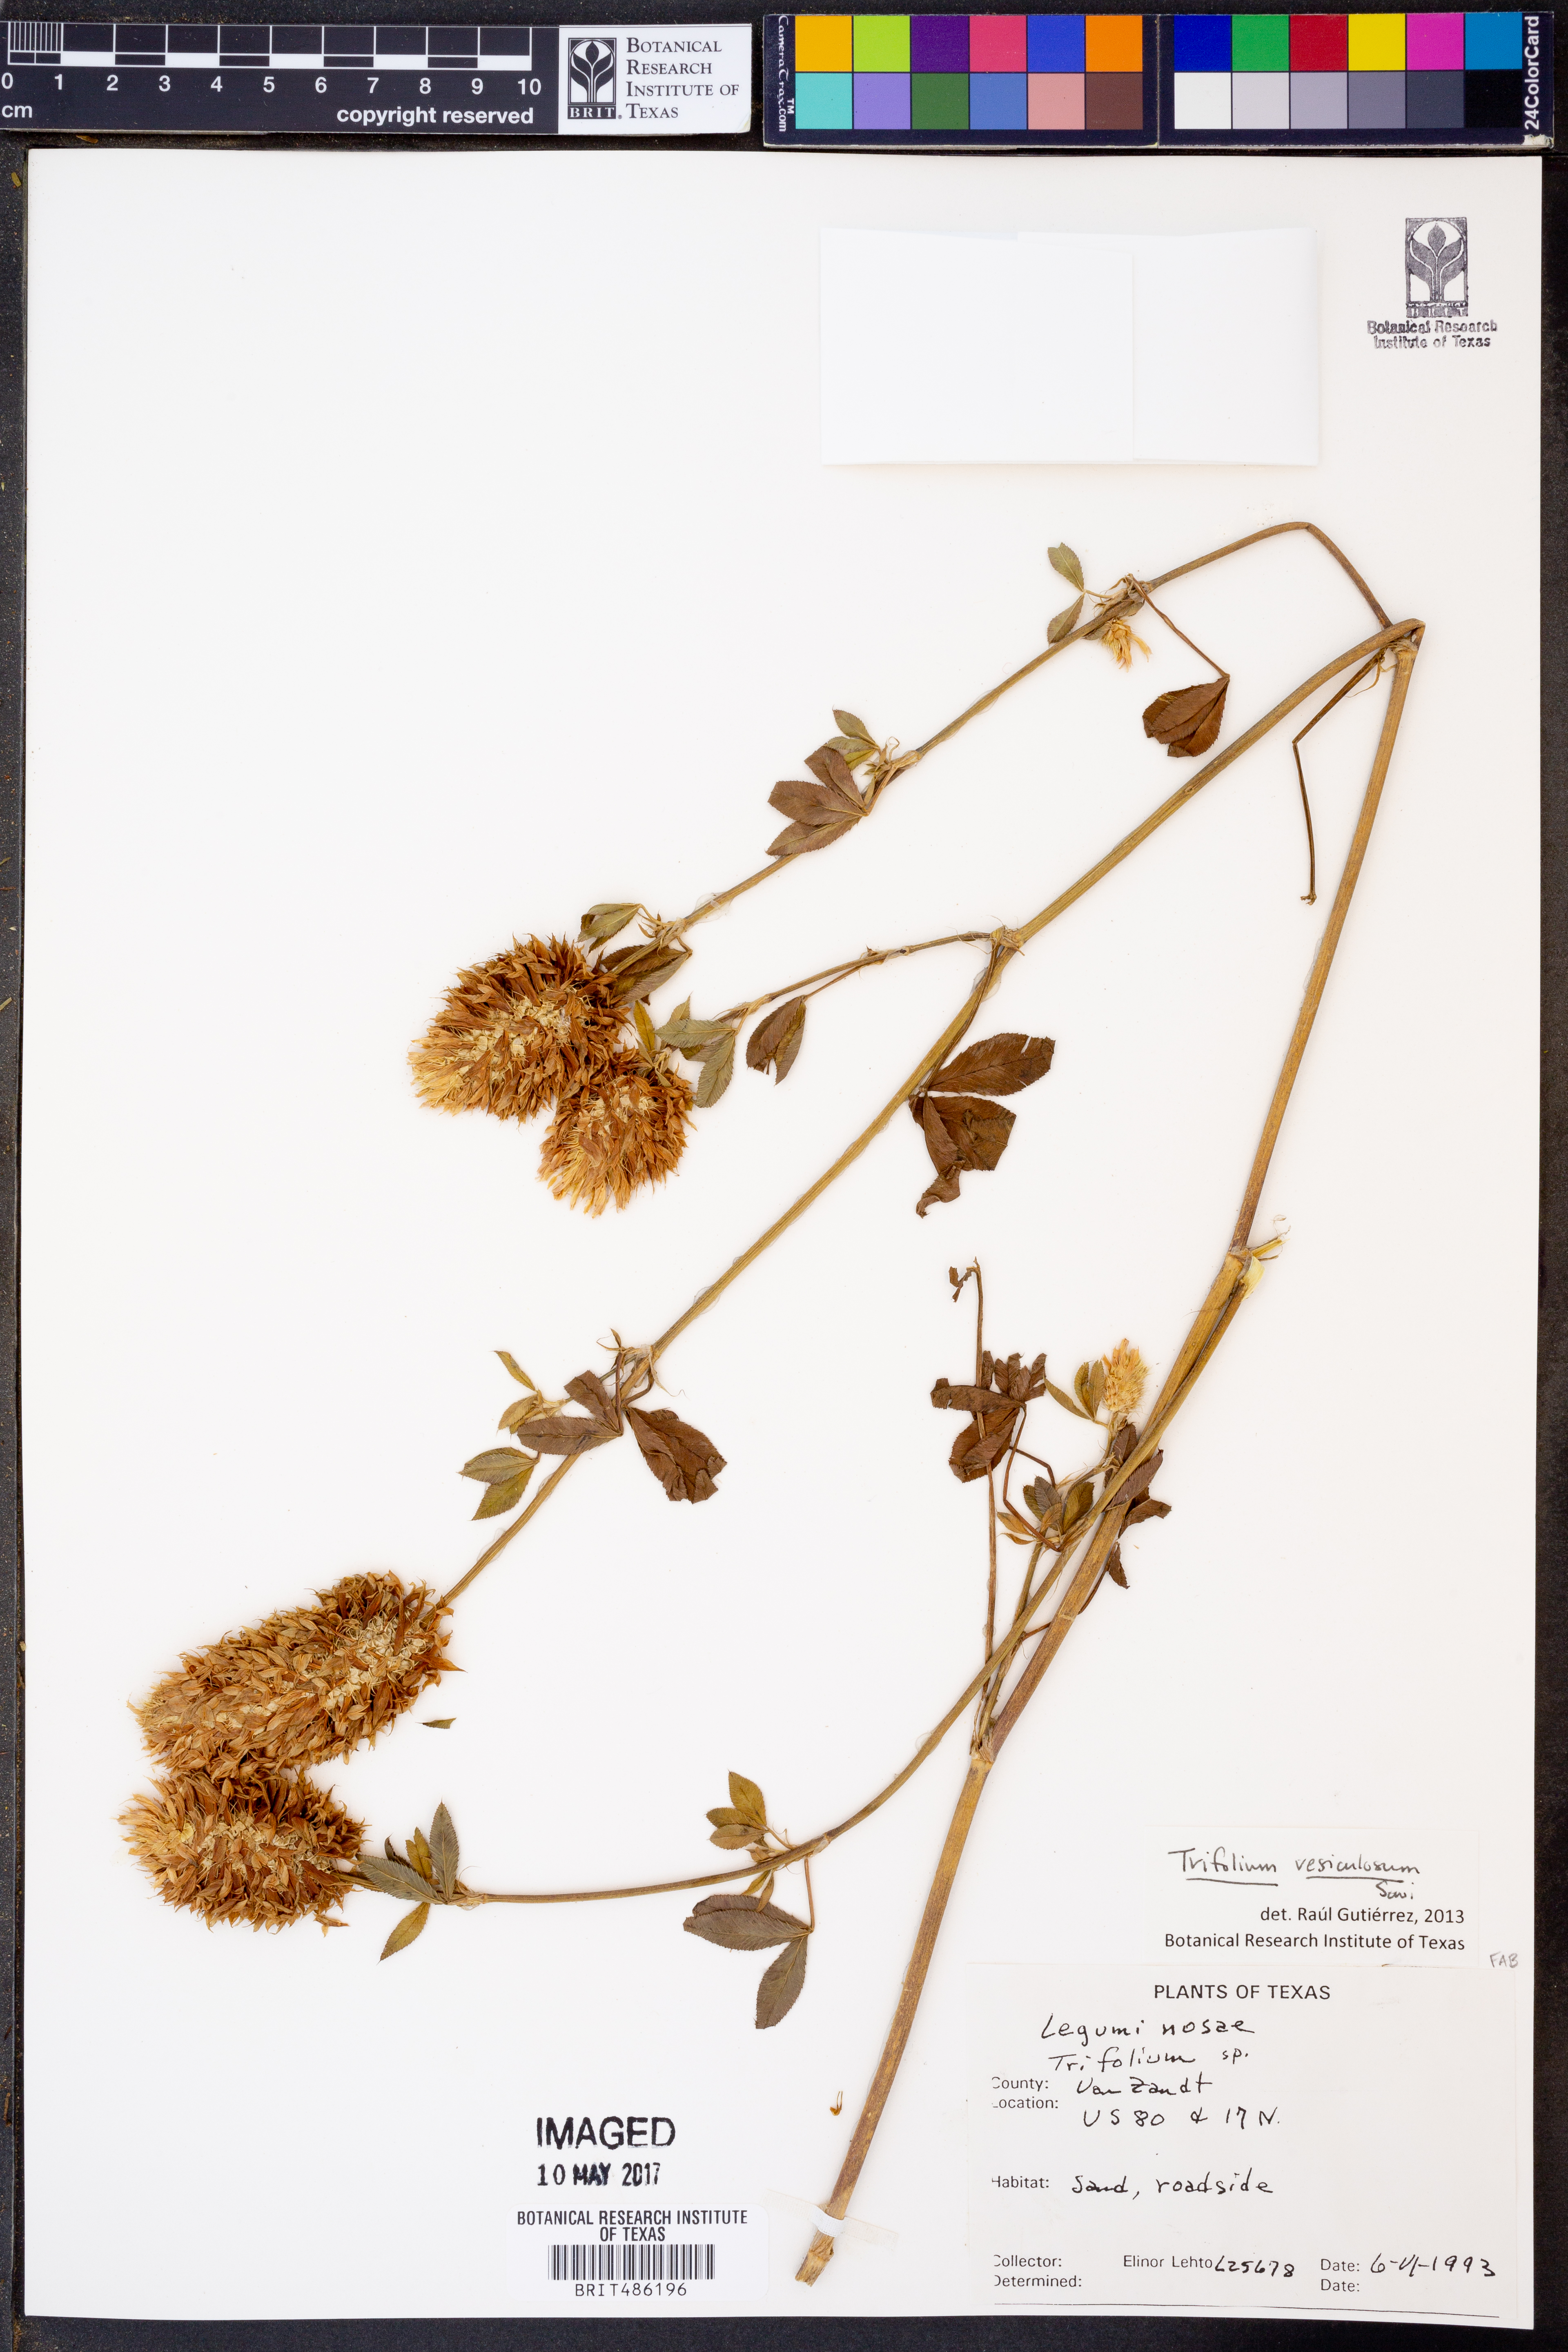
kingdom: Plantae
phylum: Tracheophyta
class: Magnoliopsida
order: Fabales
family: Fabaceae
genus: Trifolium
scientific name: Trifolium vesiculosum
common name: Arrowleaf clover
